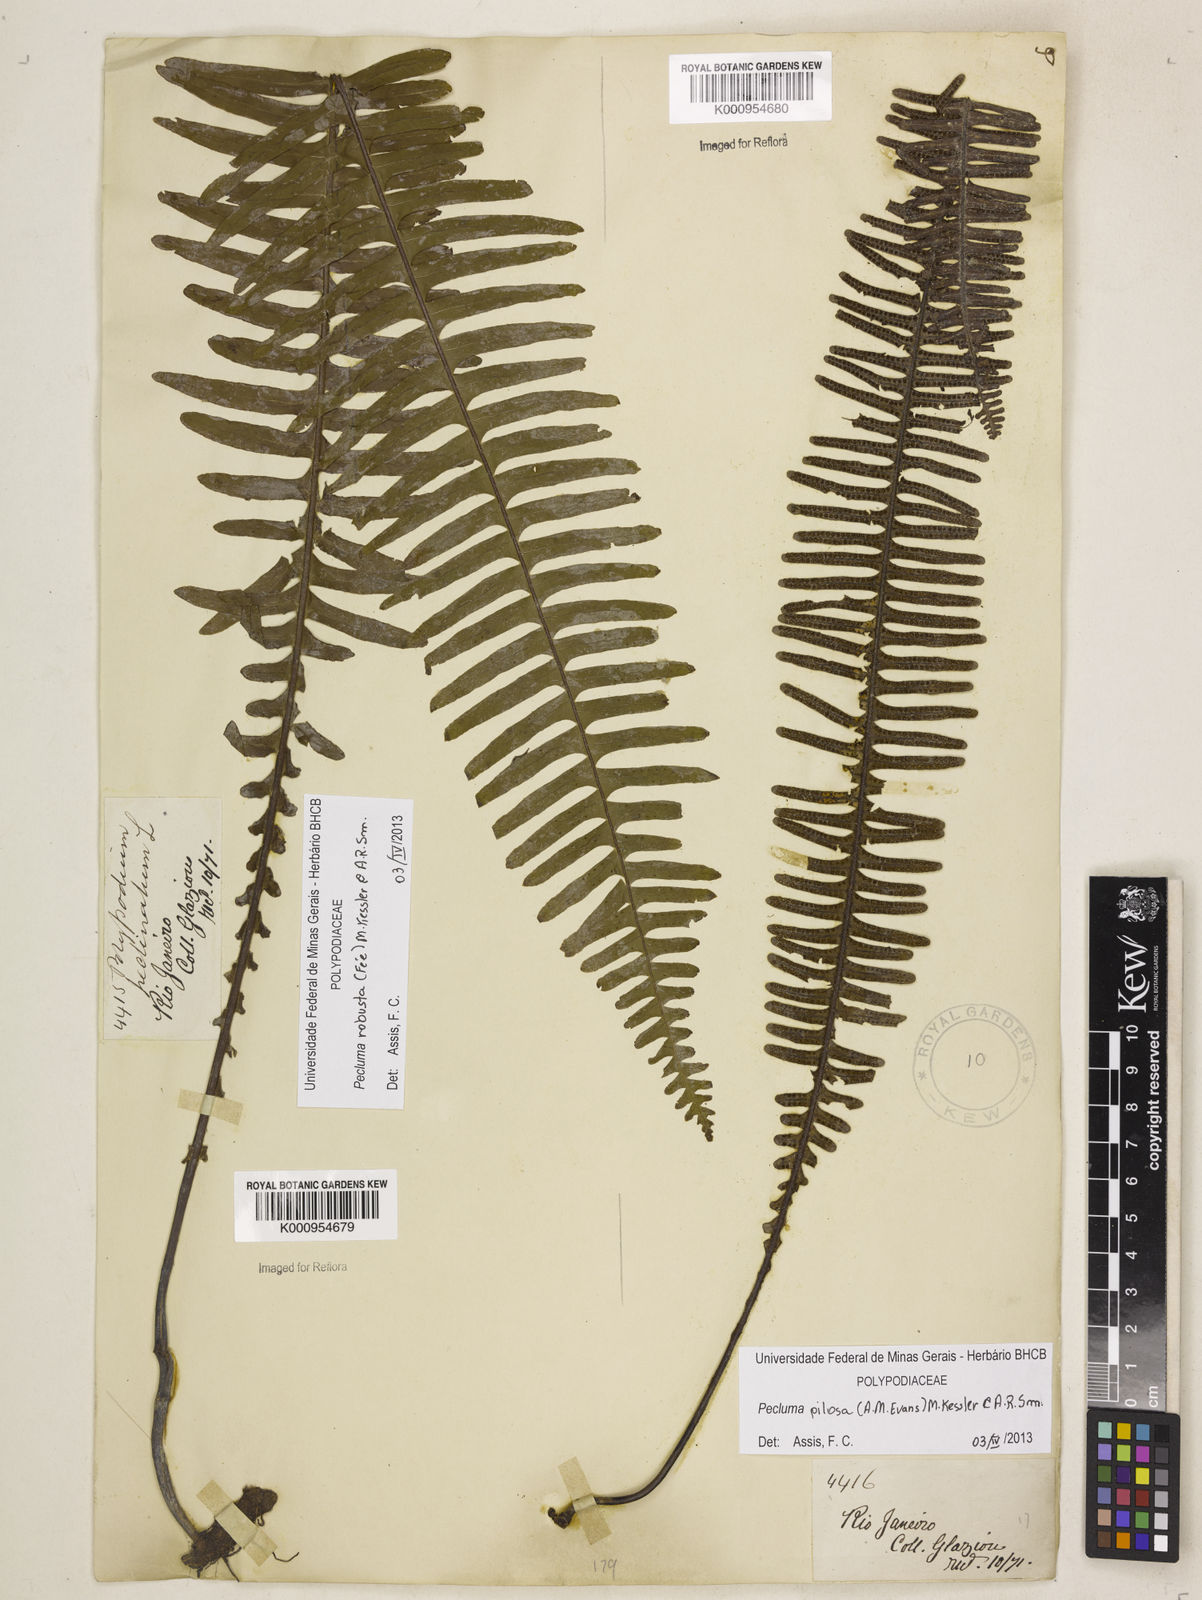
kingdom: Plantae
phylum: Tracheophyta
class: Polypodiopsida
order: Polypodiales
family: Polypodiaceae
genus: Pecluma
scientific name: Pecluma pilosa
